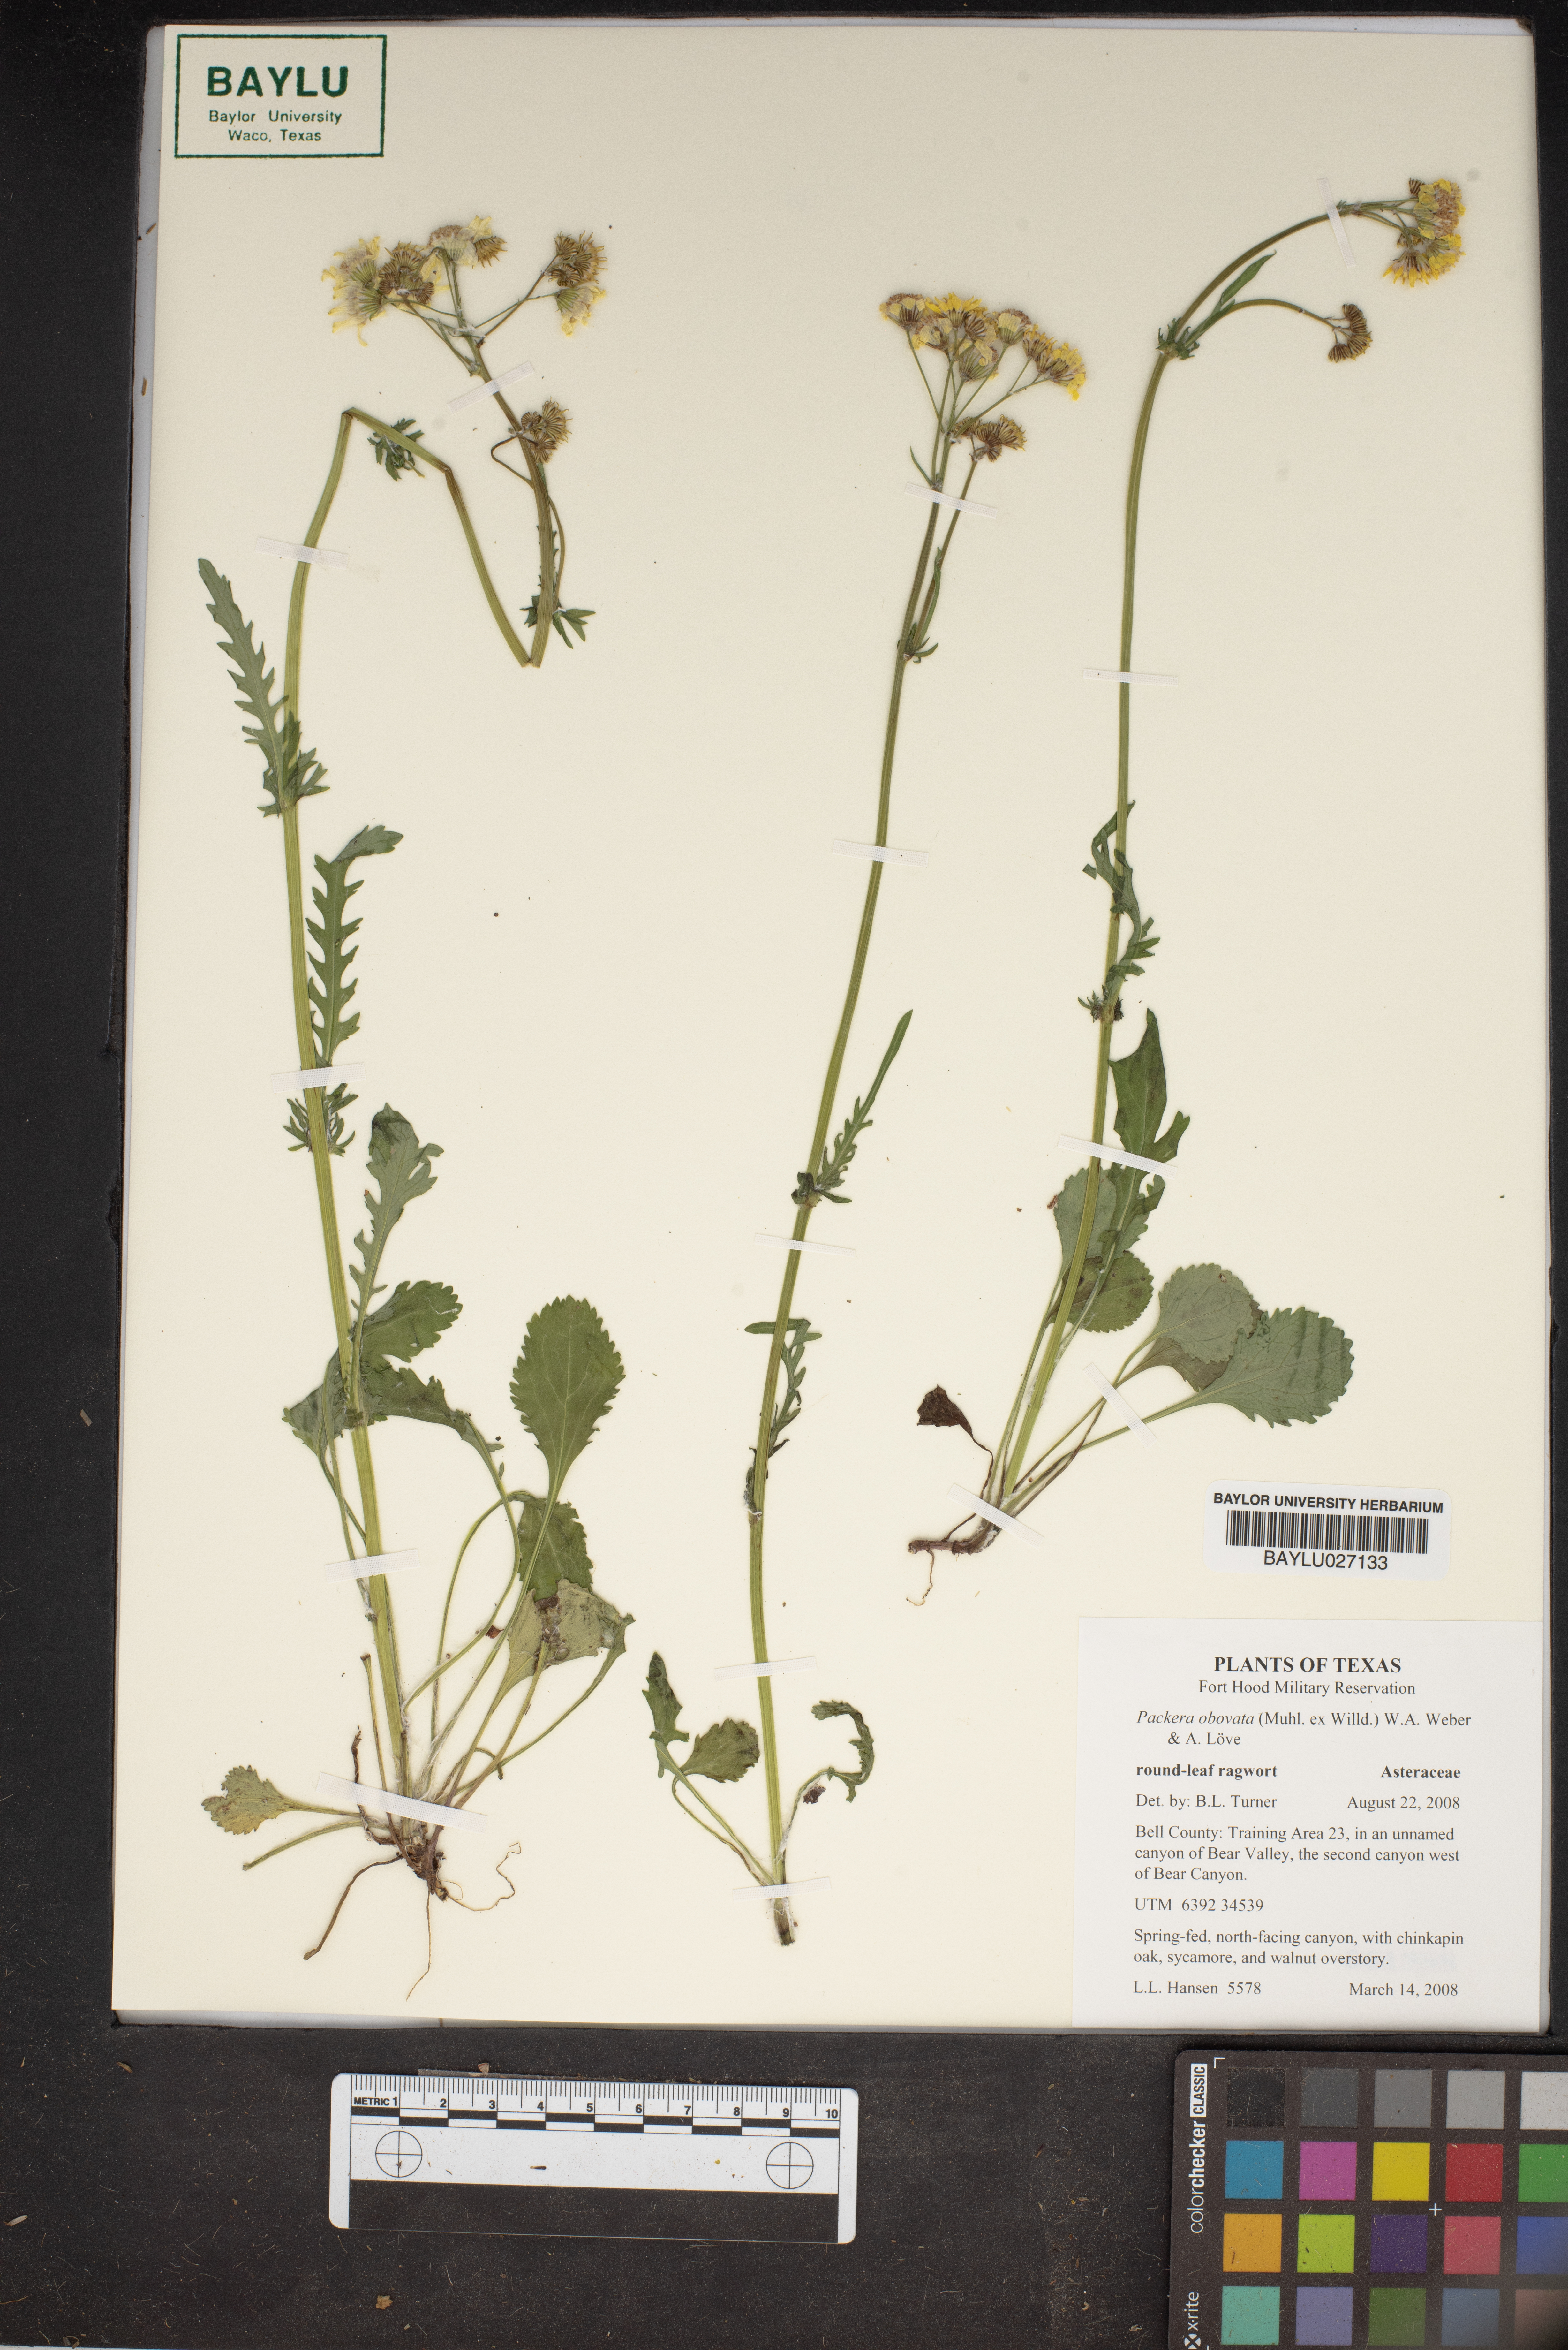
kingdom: Plantae
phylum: Tracheophyta
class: Magnoliopsida
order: Asterales
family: Asteraceae
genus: Packera
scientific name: Packera obovata
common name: Round-leaf ragwort
